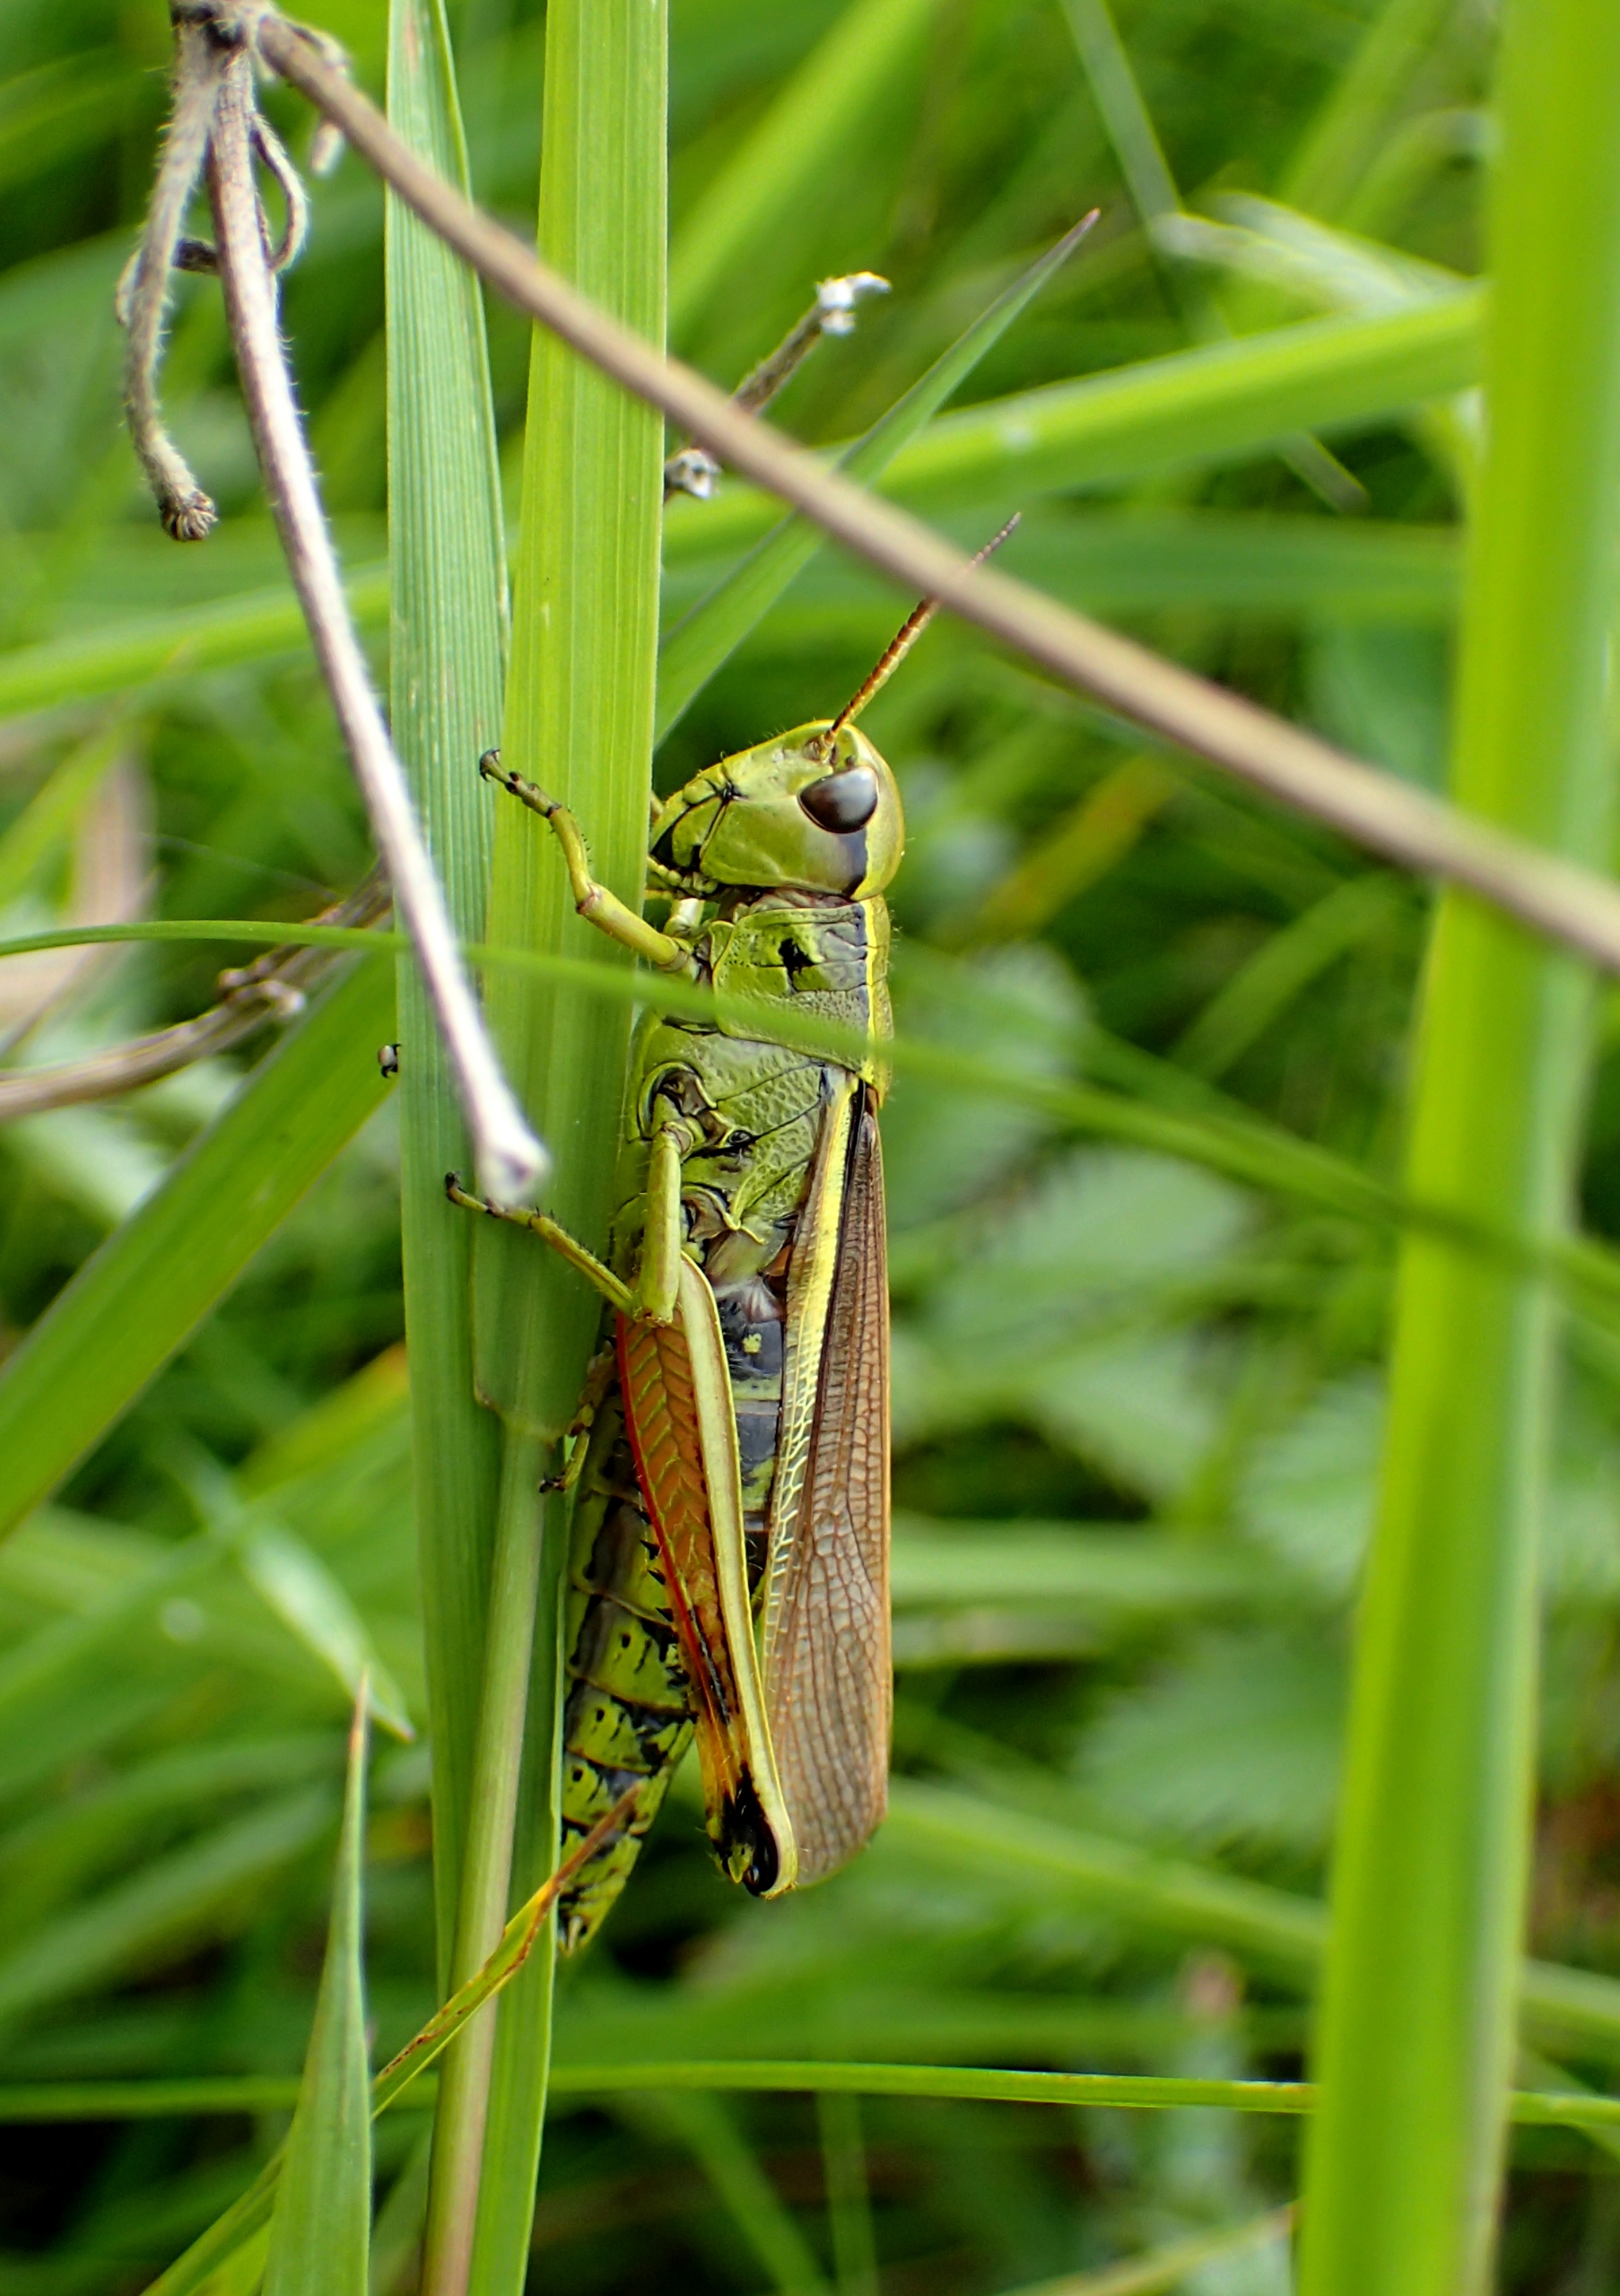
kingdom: Animalia
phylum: Arthropoda
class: Insecta
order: Orthoptera
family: Acrididae
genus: Stethophyma
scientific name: Stethophyma grossum
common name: Sumpgræshoppe
